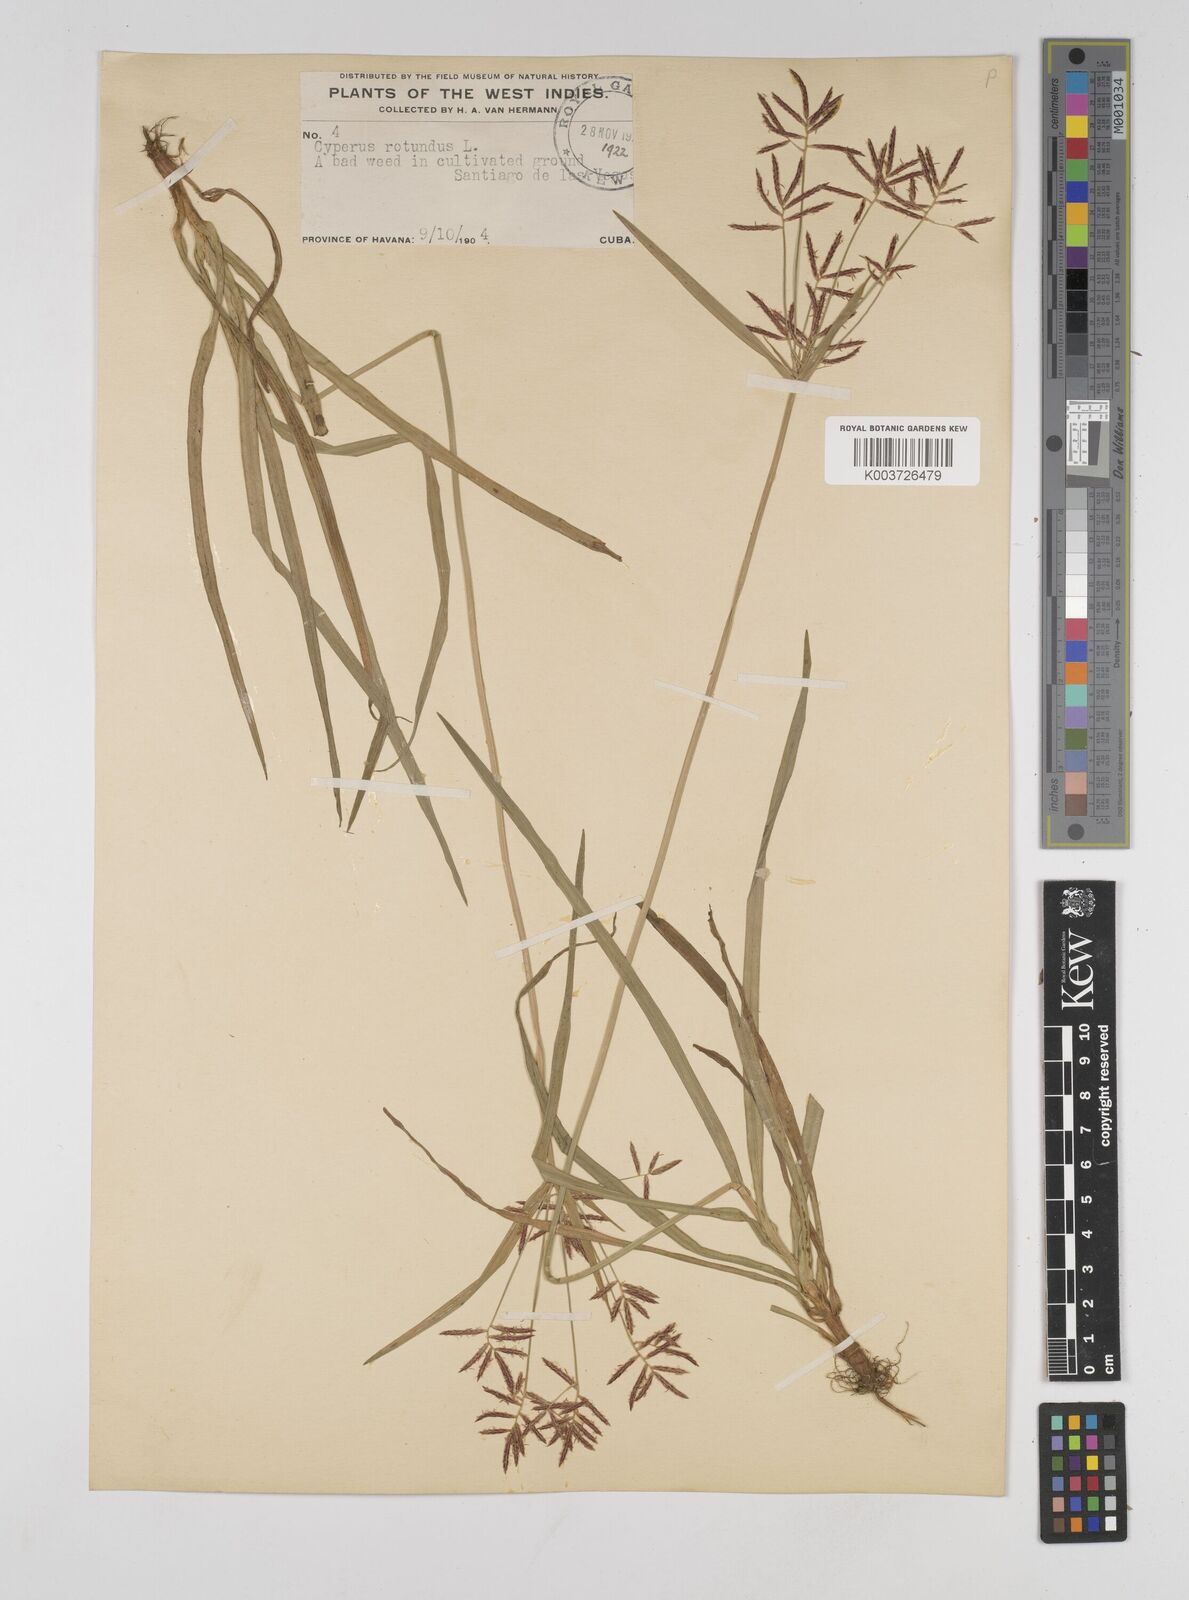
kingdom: Plantae
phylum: Tracheophyta
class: Liliopsida
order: Poales
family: Cyperaceae
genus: Cyperus
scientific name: Cyperus rotundus
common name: Nutgrass
